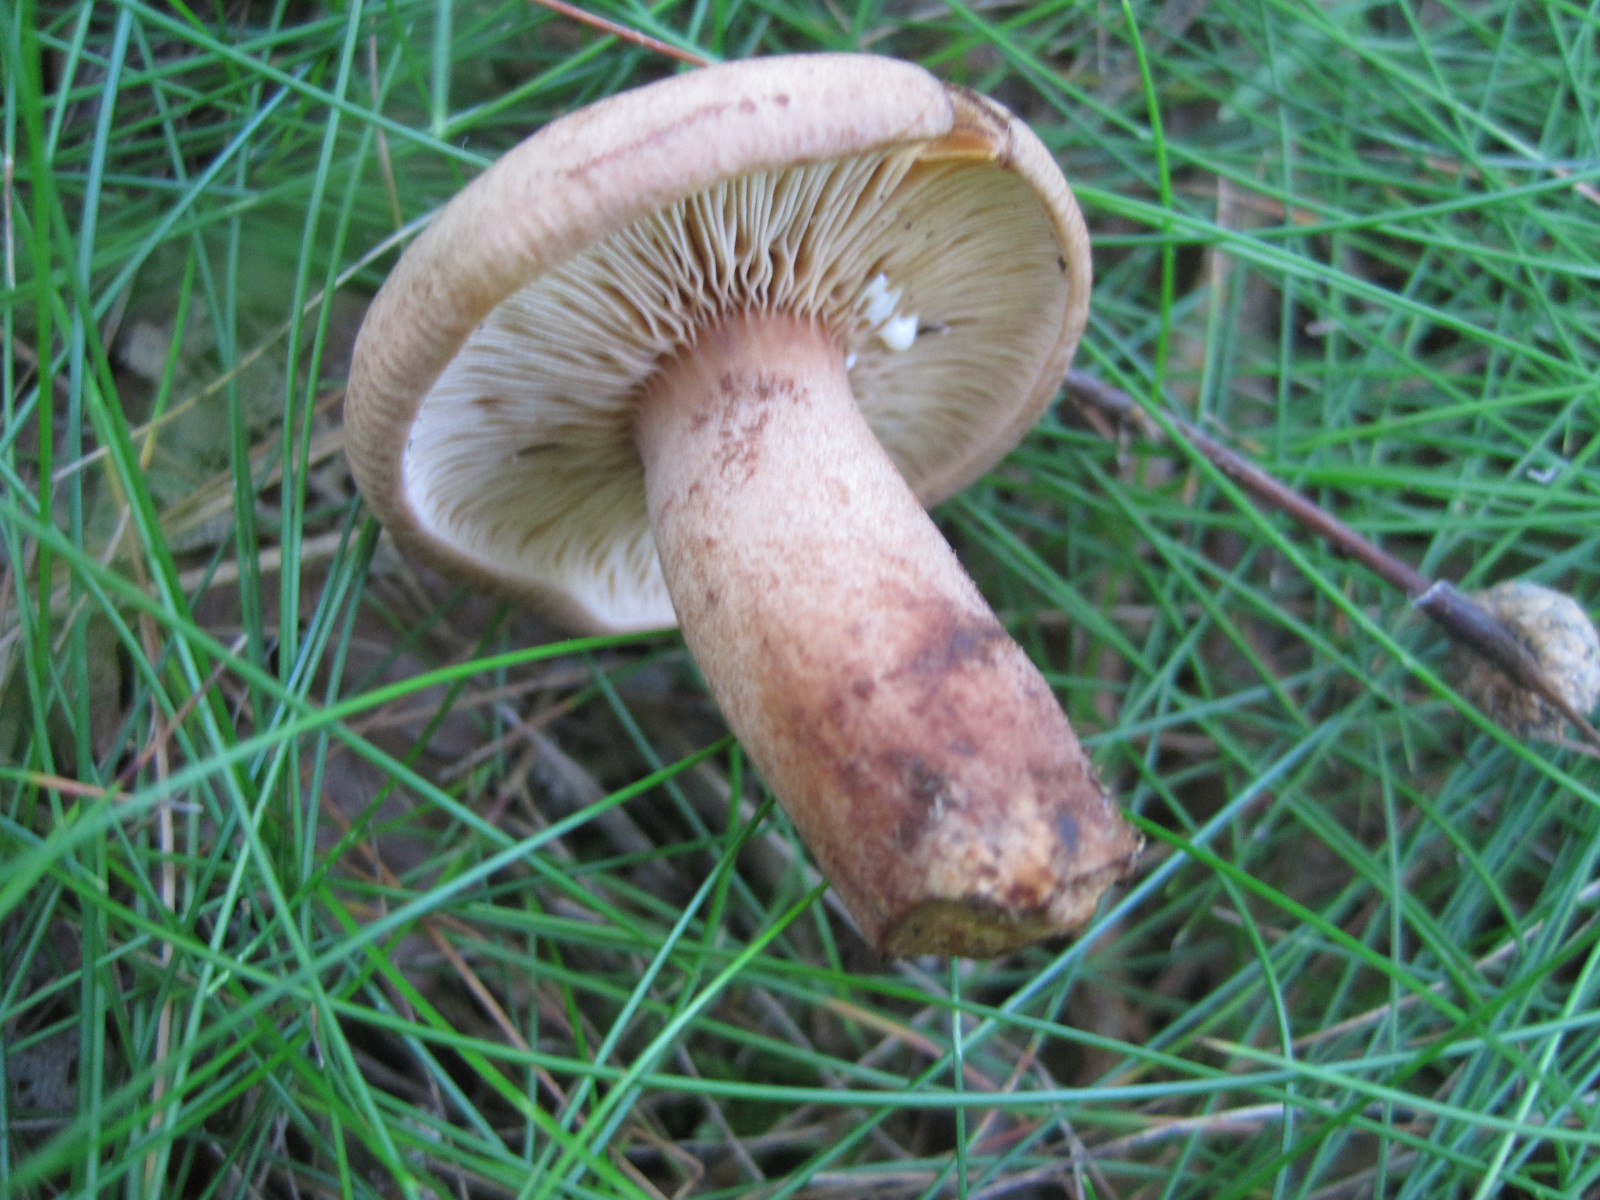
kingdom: Fungi
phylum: Basidiomycota
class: Agaricomycetes
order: Russulales
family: Russulaceae
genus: Lactarius
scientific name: Lactarius quietus
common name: ege-mælkehat
